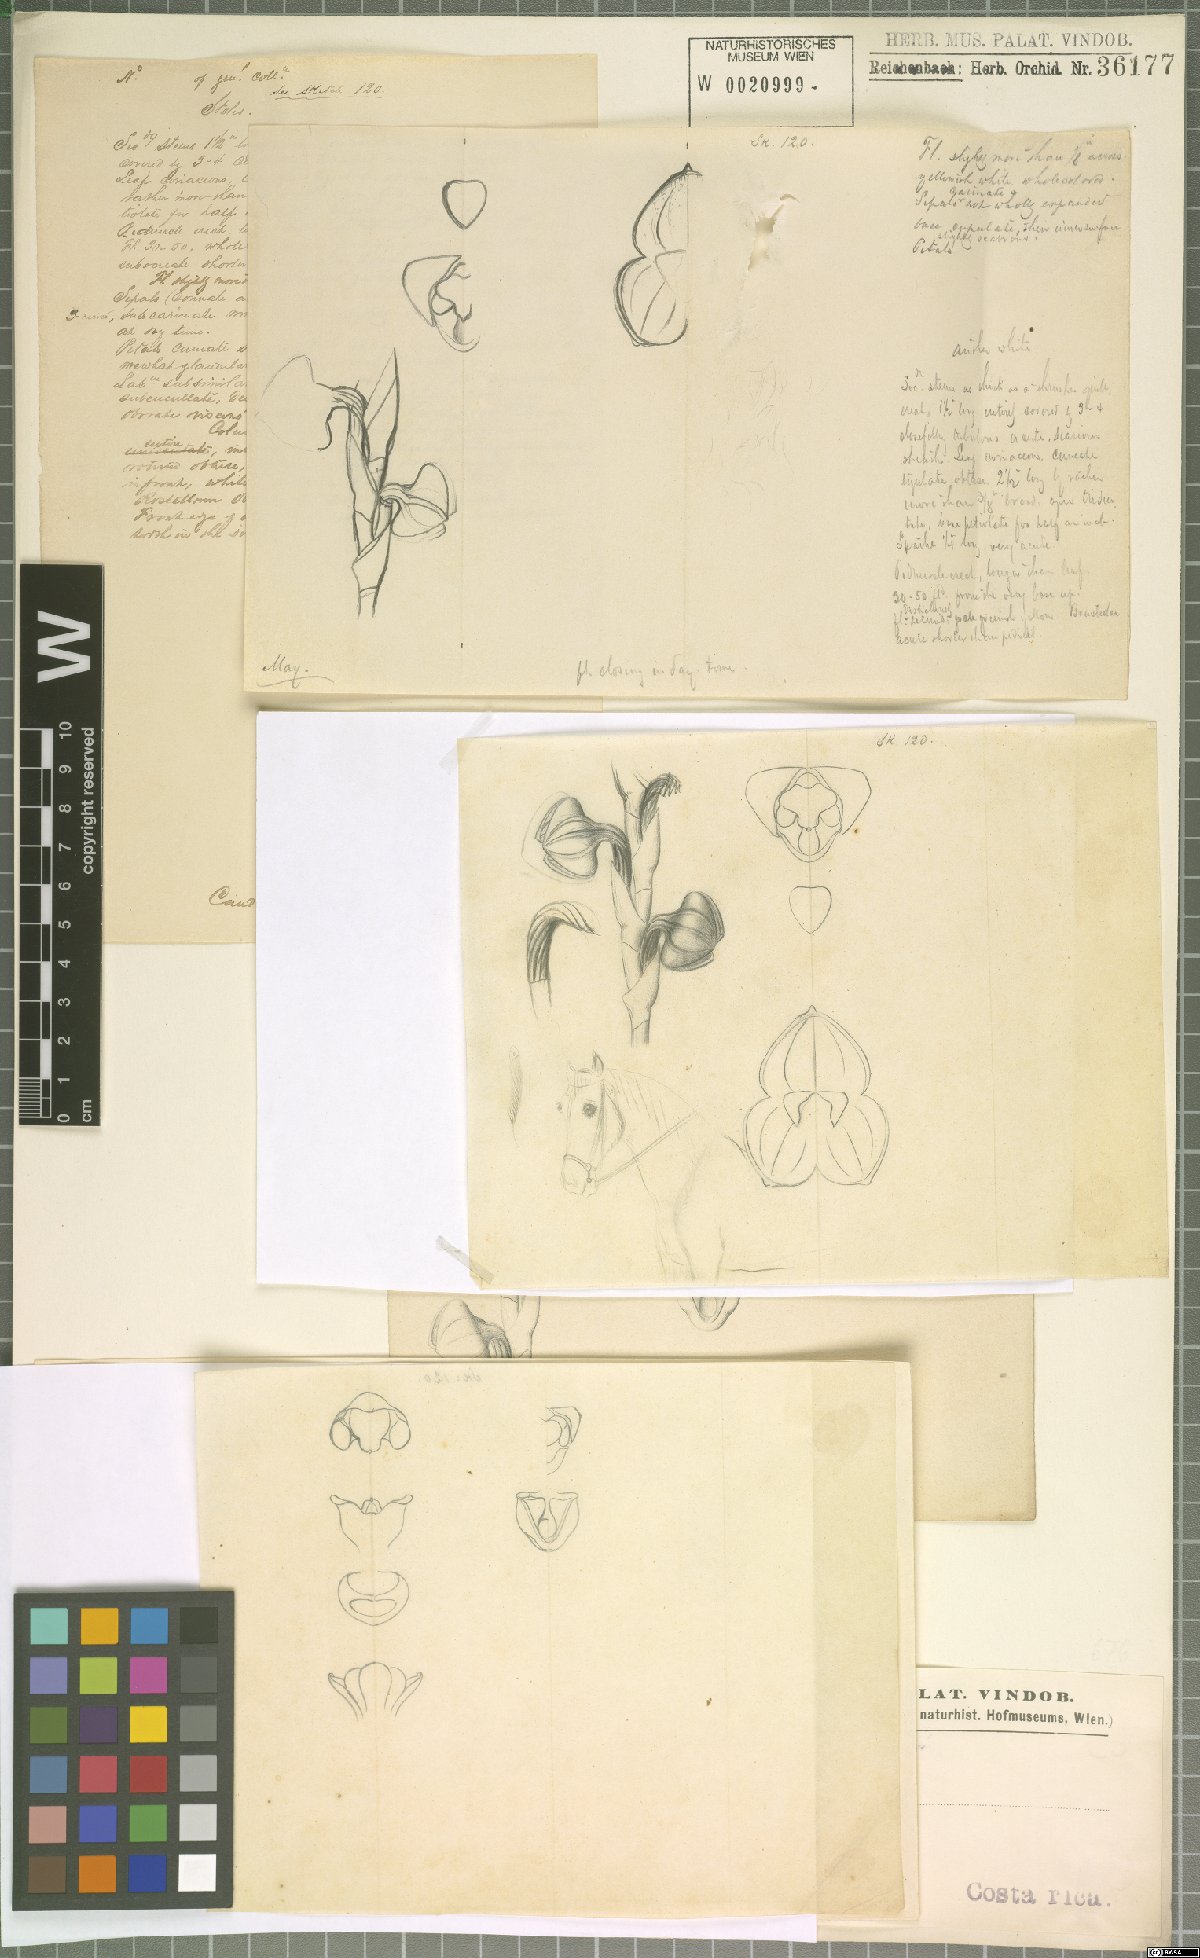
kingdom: Plantae
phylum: Tracheophyta
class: Liliopsida
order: Asparagales
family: Orchidaceae
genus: Stelis
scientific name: Stelis
